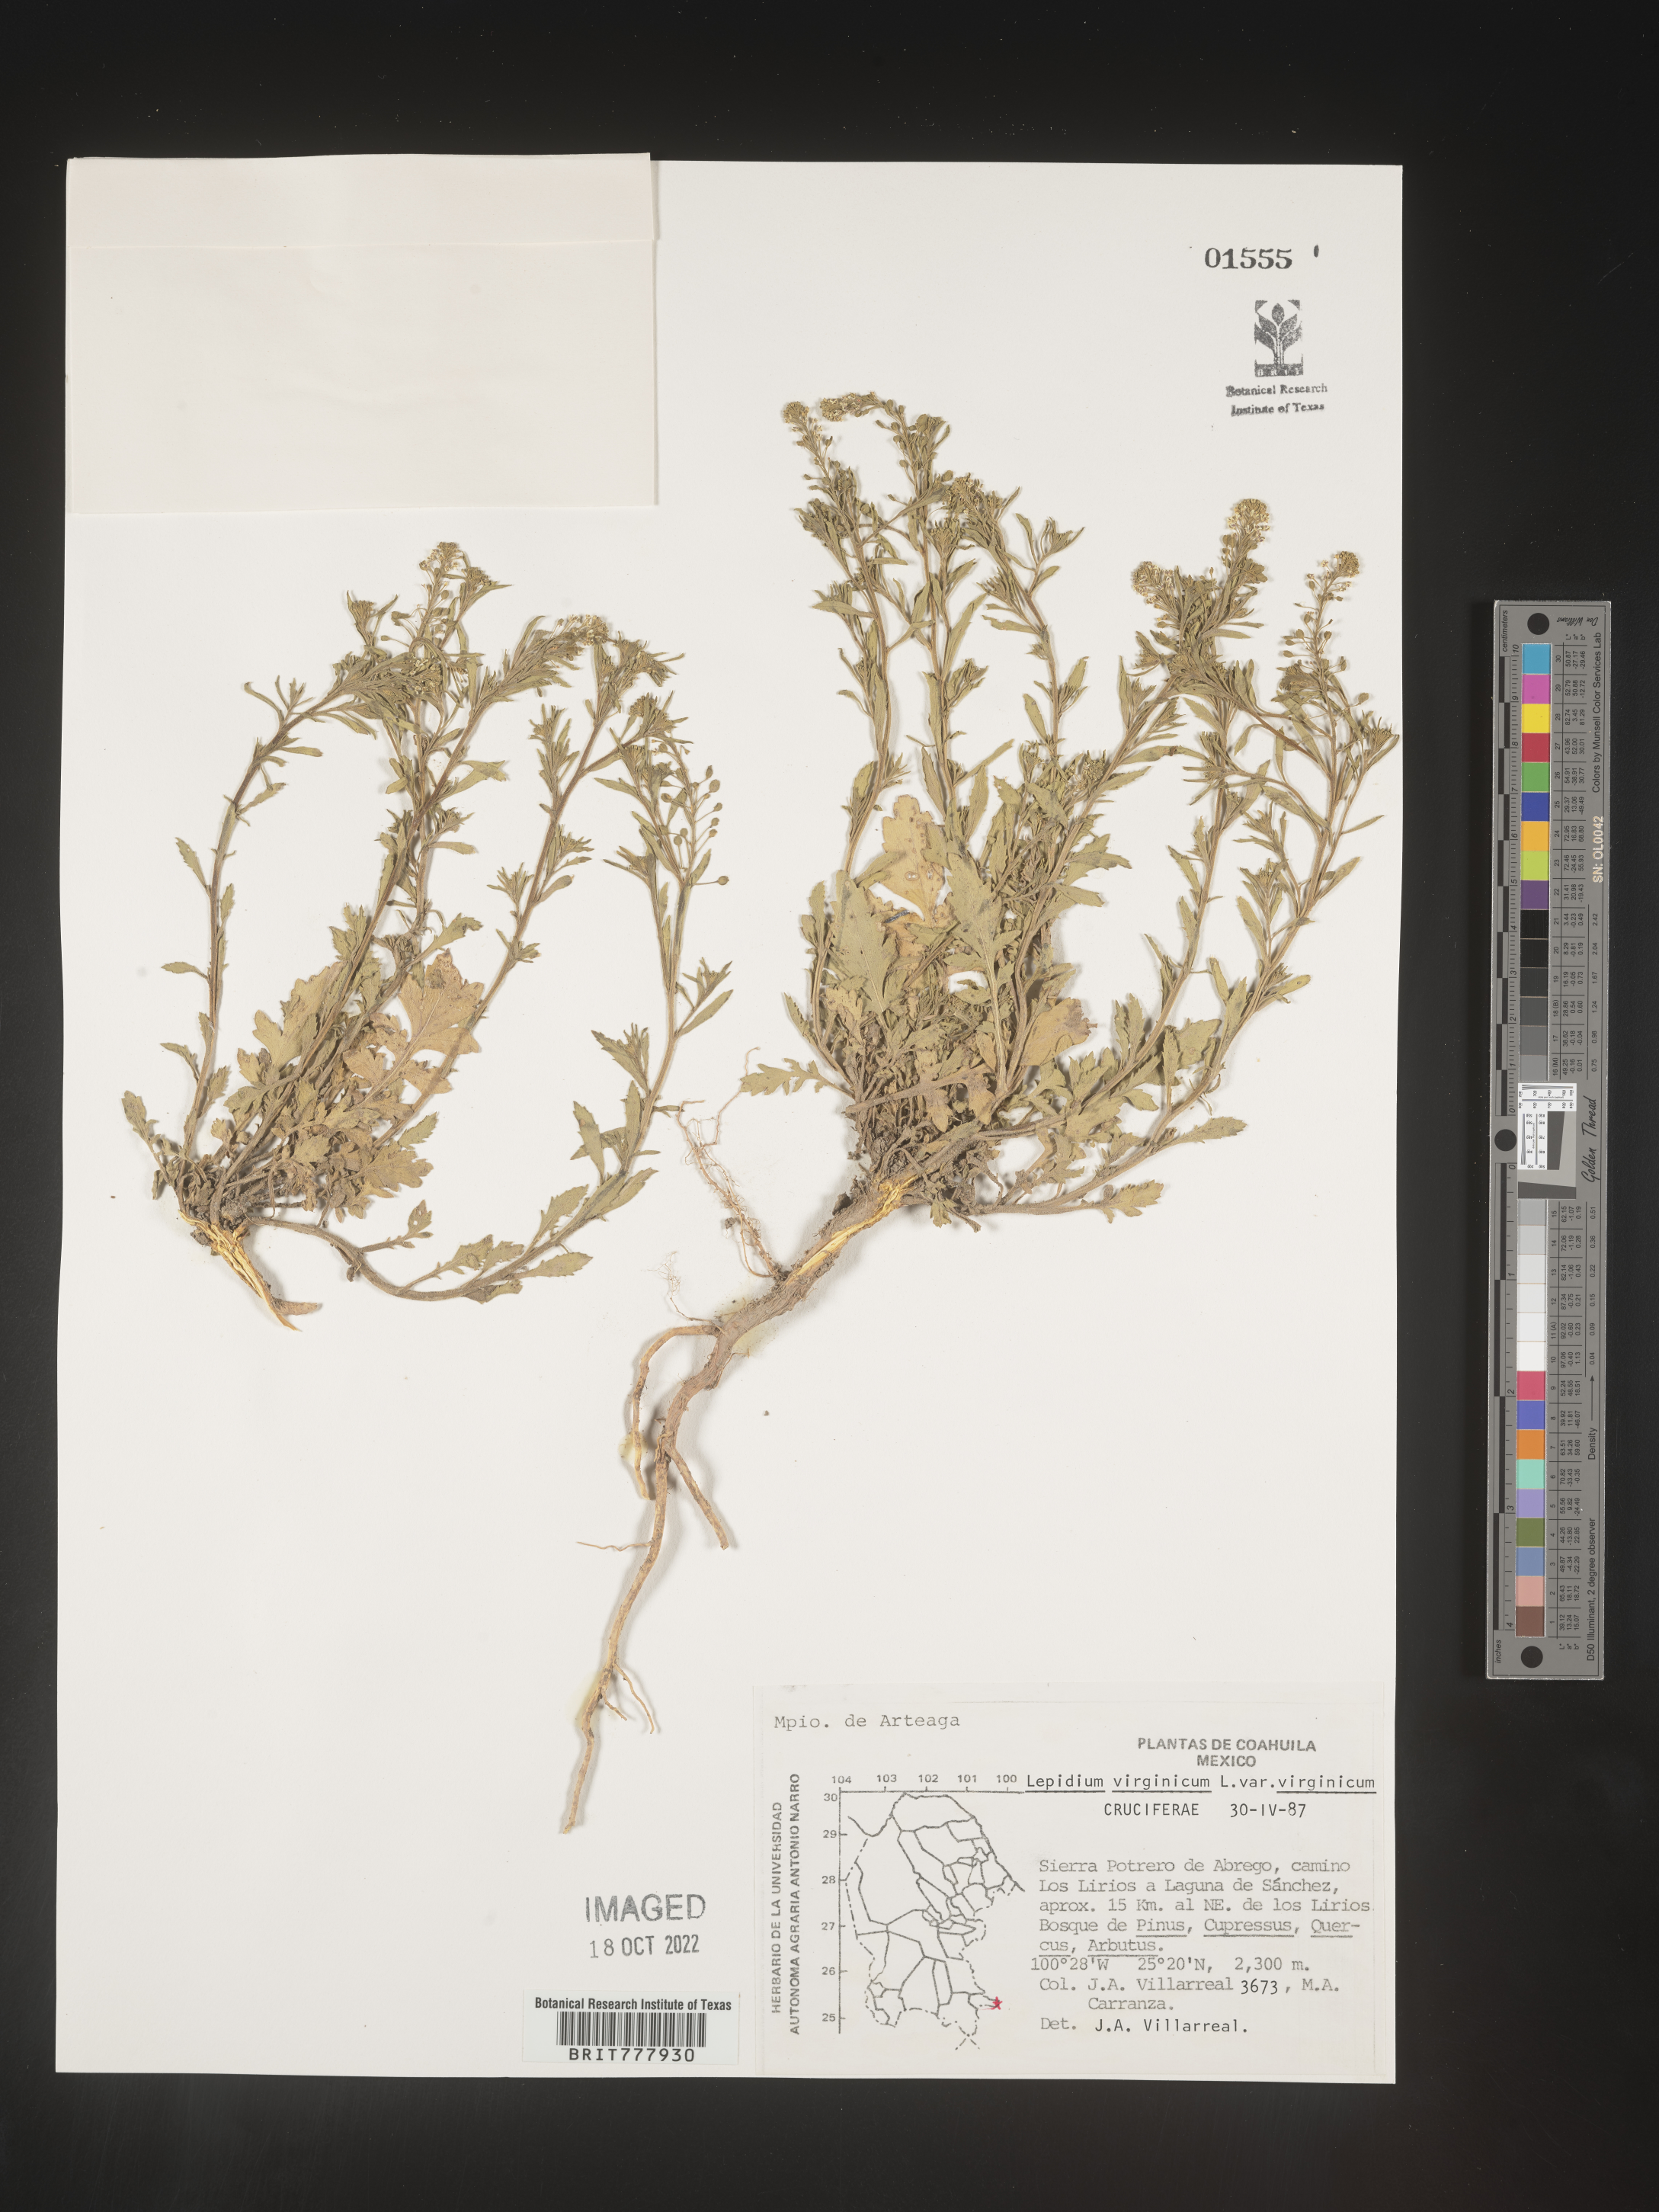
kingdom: Plantae
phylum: Tracheophyta
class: Magnoliopsida
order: Brassicales
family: Brassicaceae
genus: Lepidium
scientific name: Lepidium
